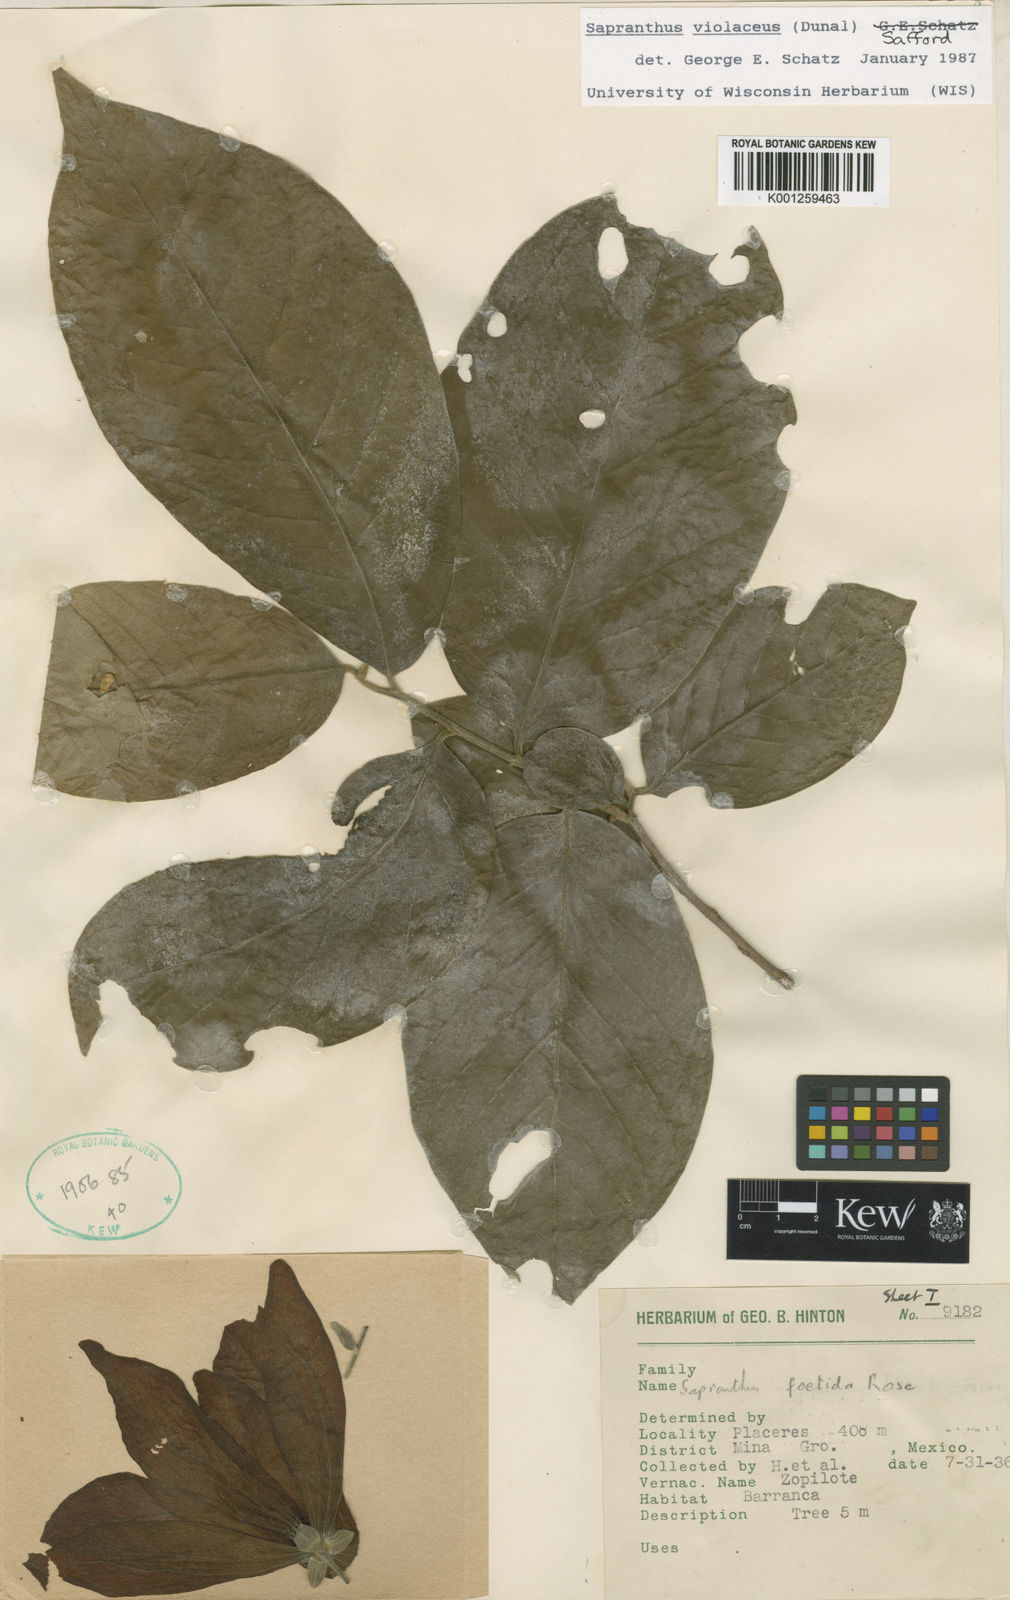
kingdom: Plantae
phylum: Tracheophyta
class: Magnoliopsida
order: Magnoliales
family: Annonaceae
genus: Sapranthus
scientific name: Sapranthus
